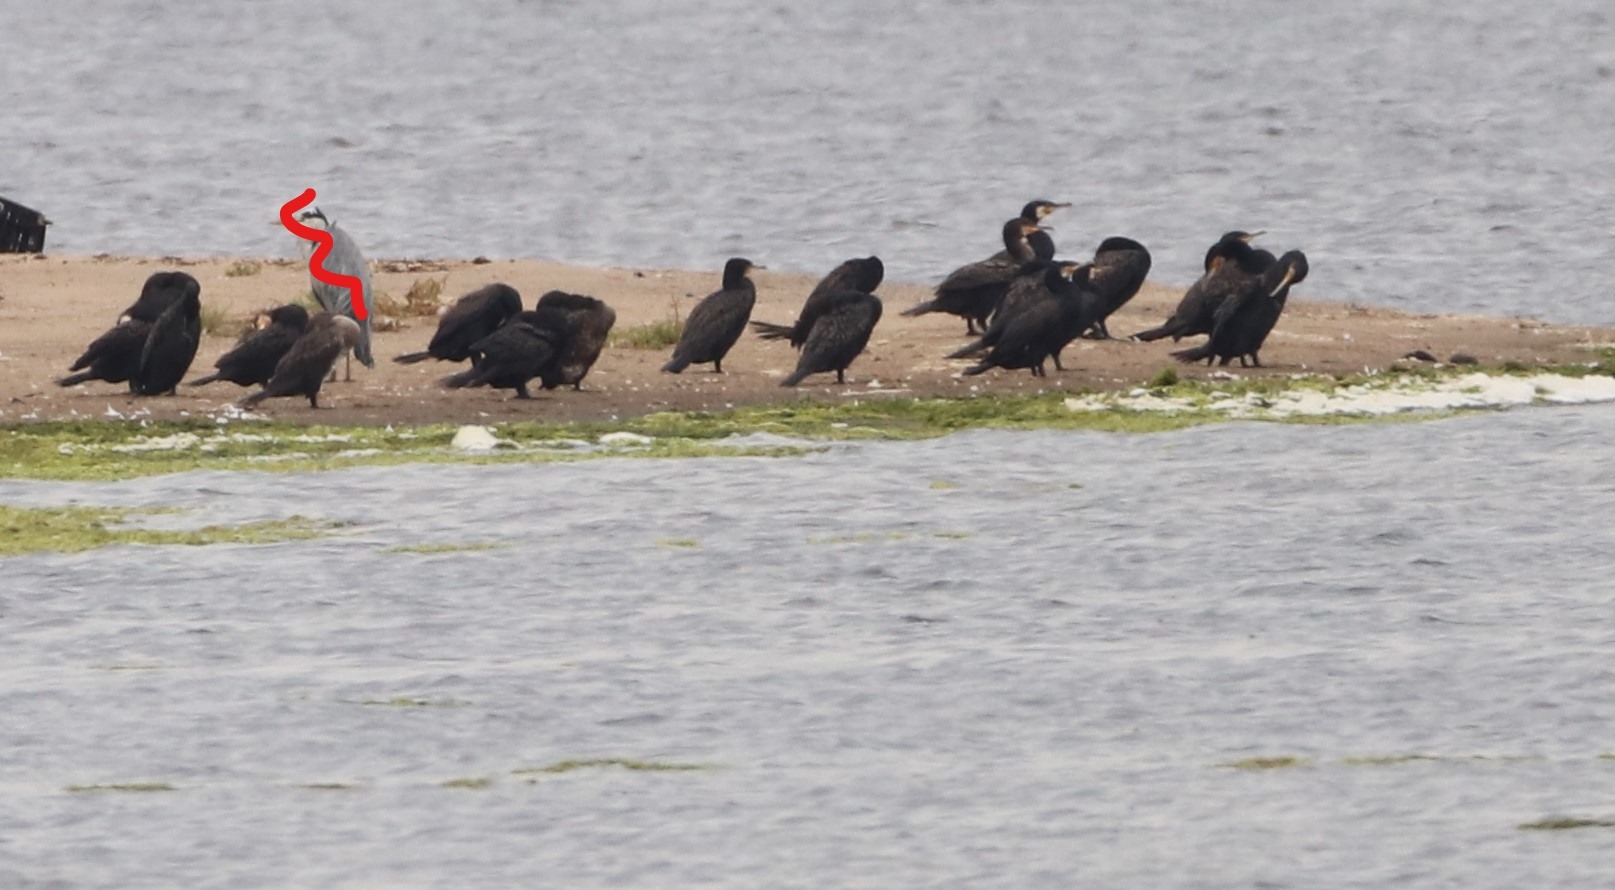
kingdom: Animalia
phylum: Chordata
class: Aves
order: Suliformes
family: Phalacrocoracidae
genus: Phalacrocorax
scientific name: Phalacrocorax carbo
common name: Skarv
